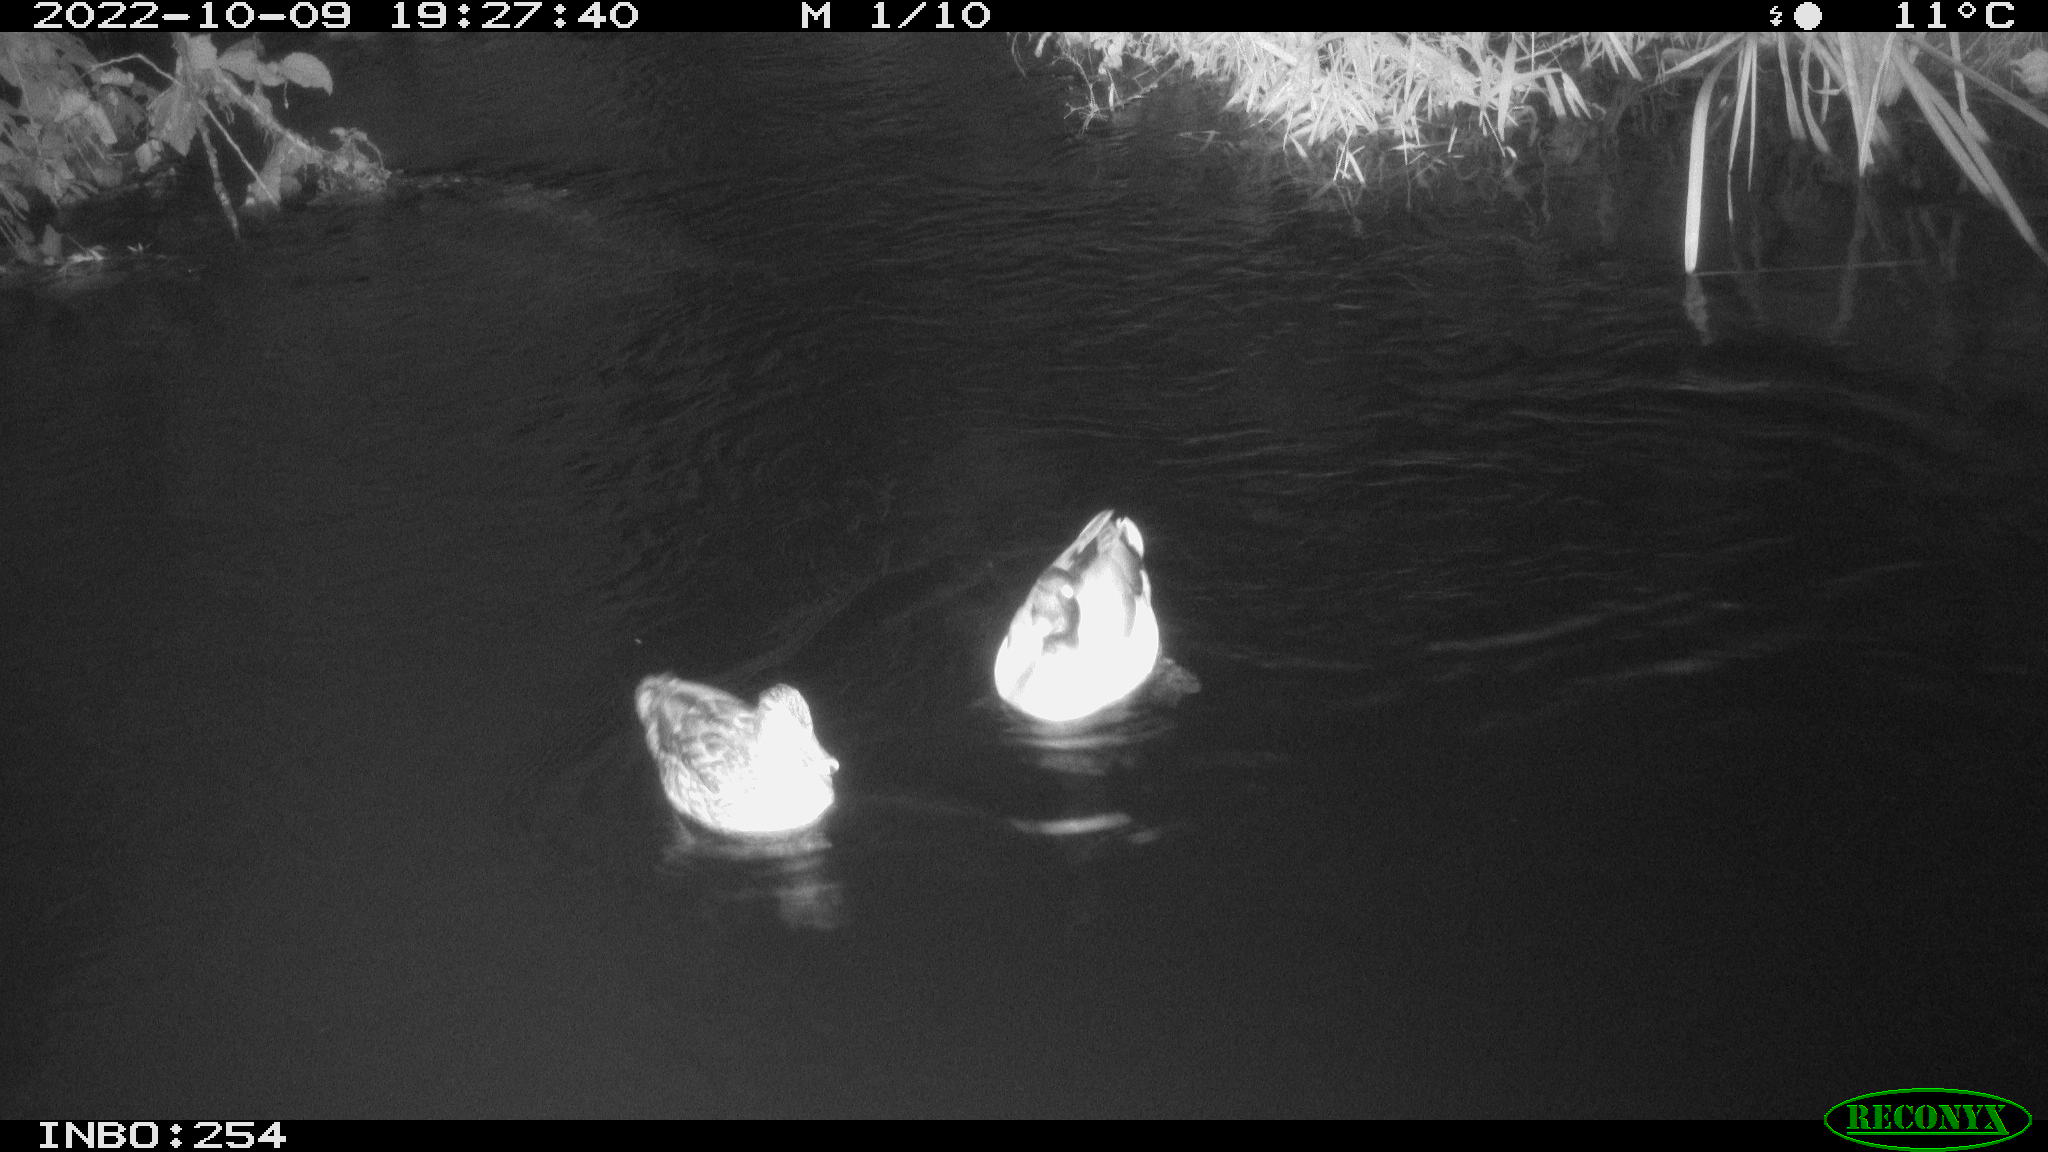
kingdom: Animalia
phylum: Chordata
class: Aves
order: Anseriformes
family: Anatidae
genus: Anas
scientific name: Anas
